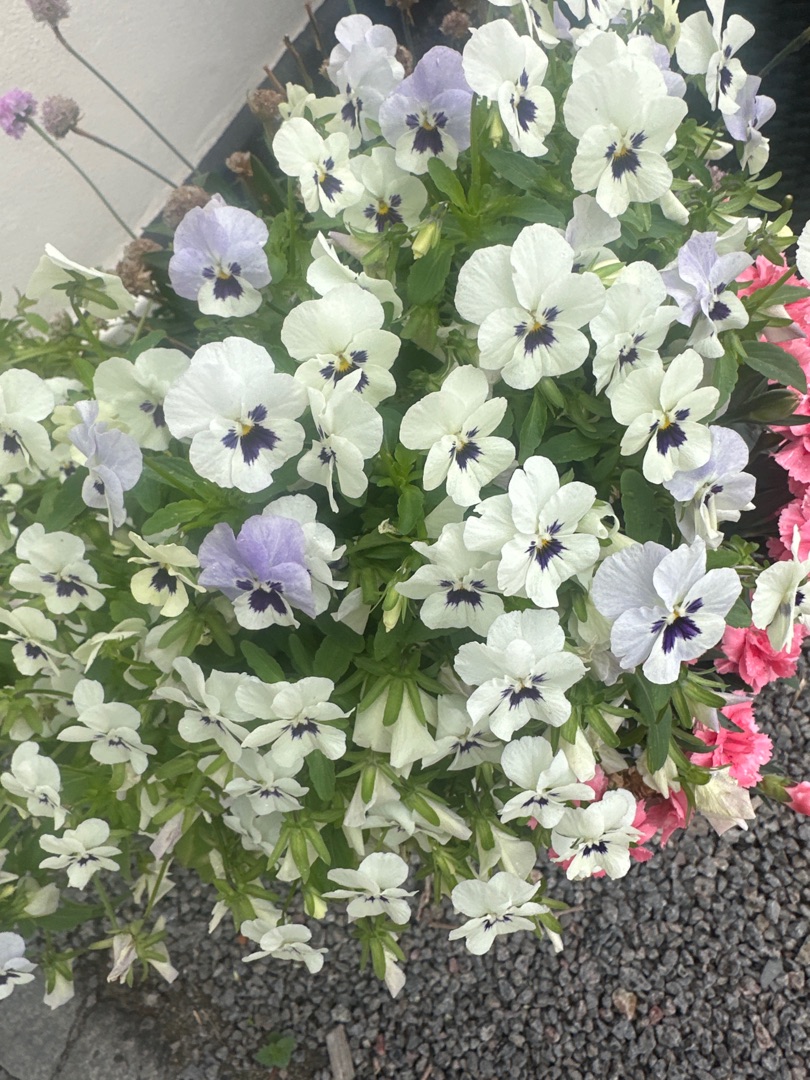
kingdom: Plantae
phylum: Tracheophyta
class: Magnoliopsida
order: Malpighiales
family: Violaceae
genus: Viola
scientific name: Viola wittrockiana
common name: Have-stedmoderblomst
